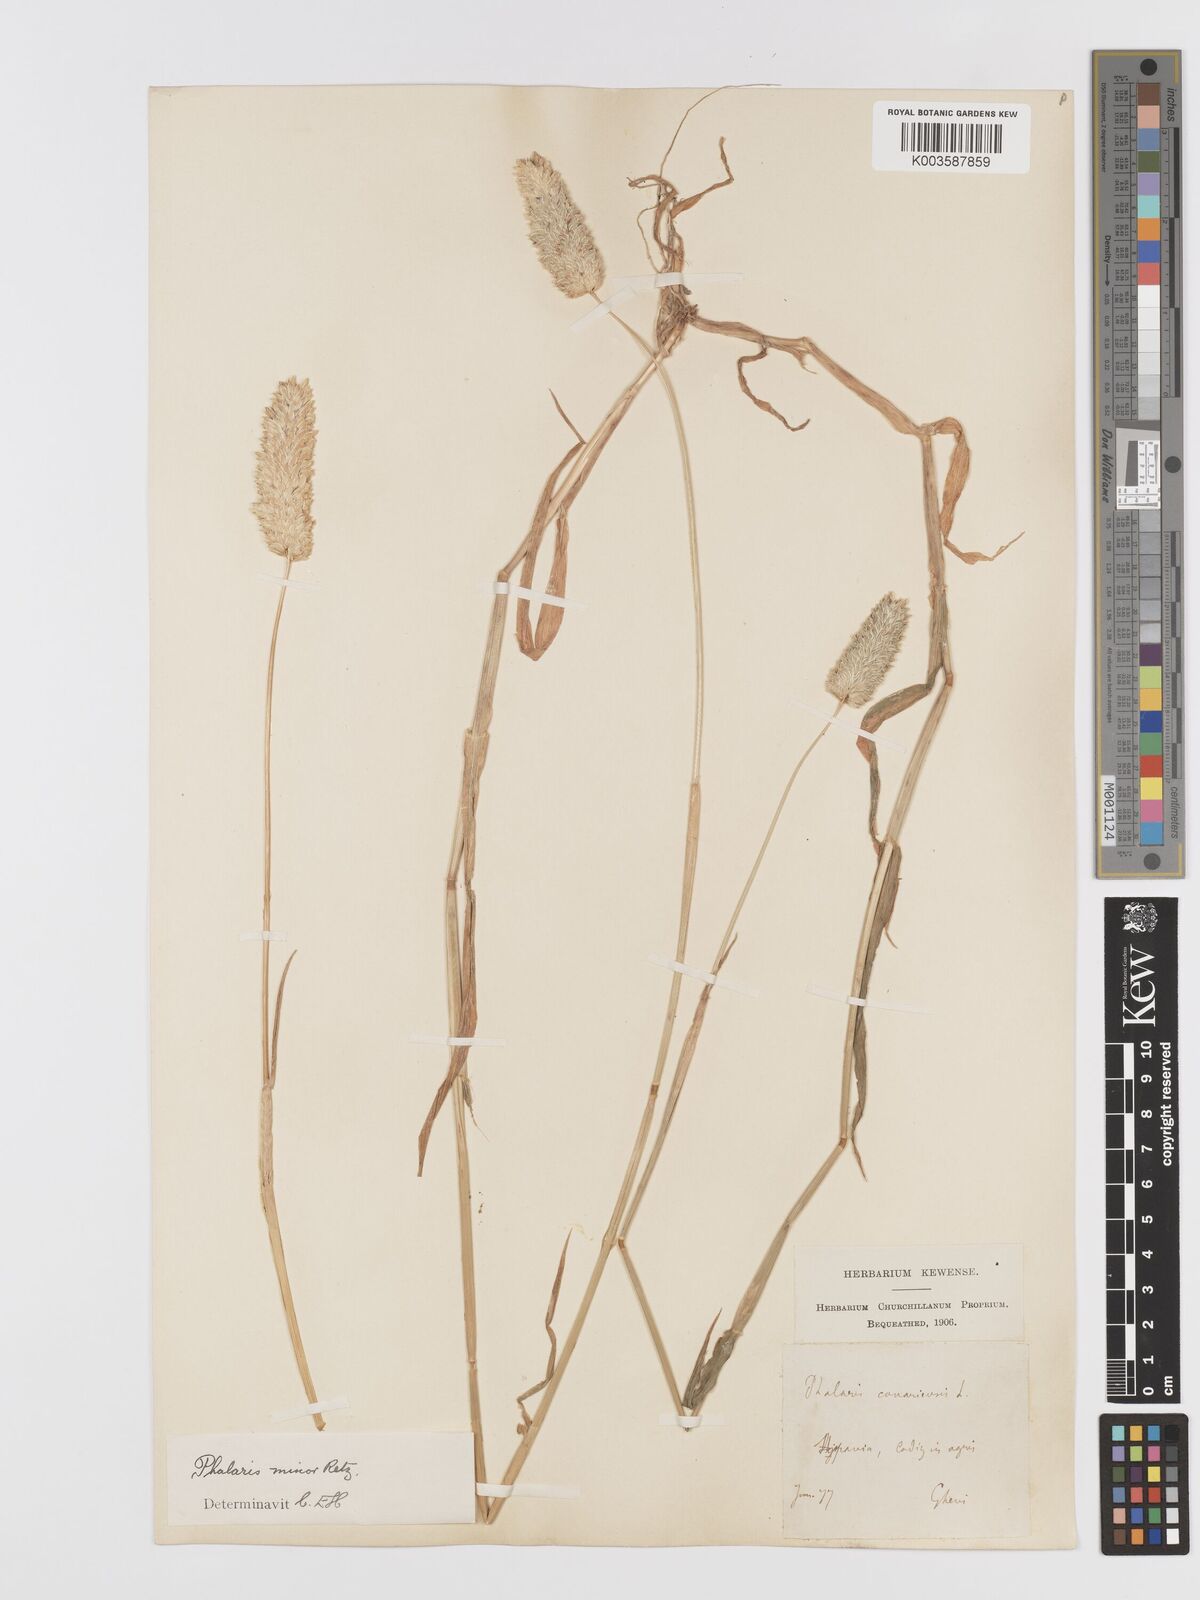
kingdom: Plantae
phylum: Tracheophyta
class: Liliopsida
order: Poales
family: Poaceae
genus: Phalaris
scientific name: Phalaris minor
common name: Littleseed canarygrass
